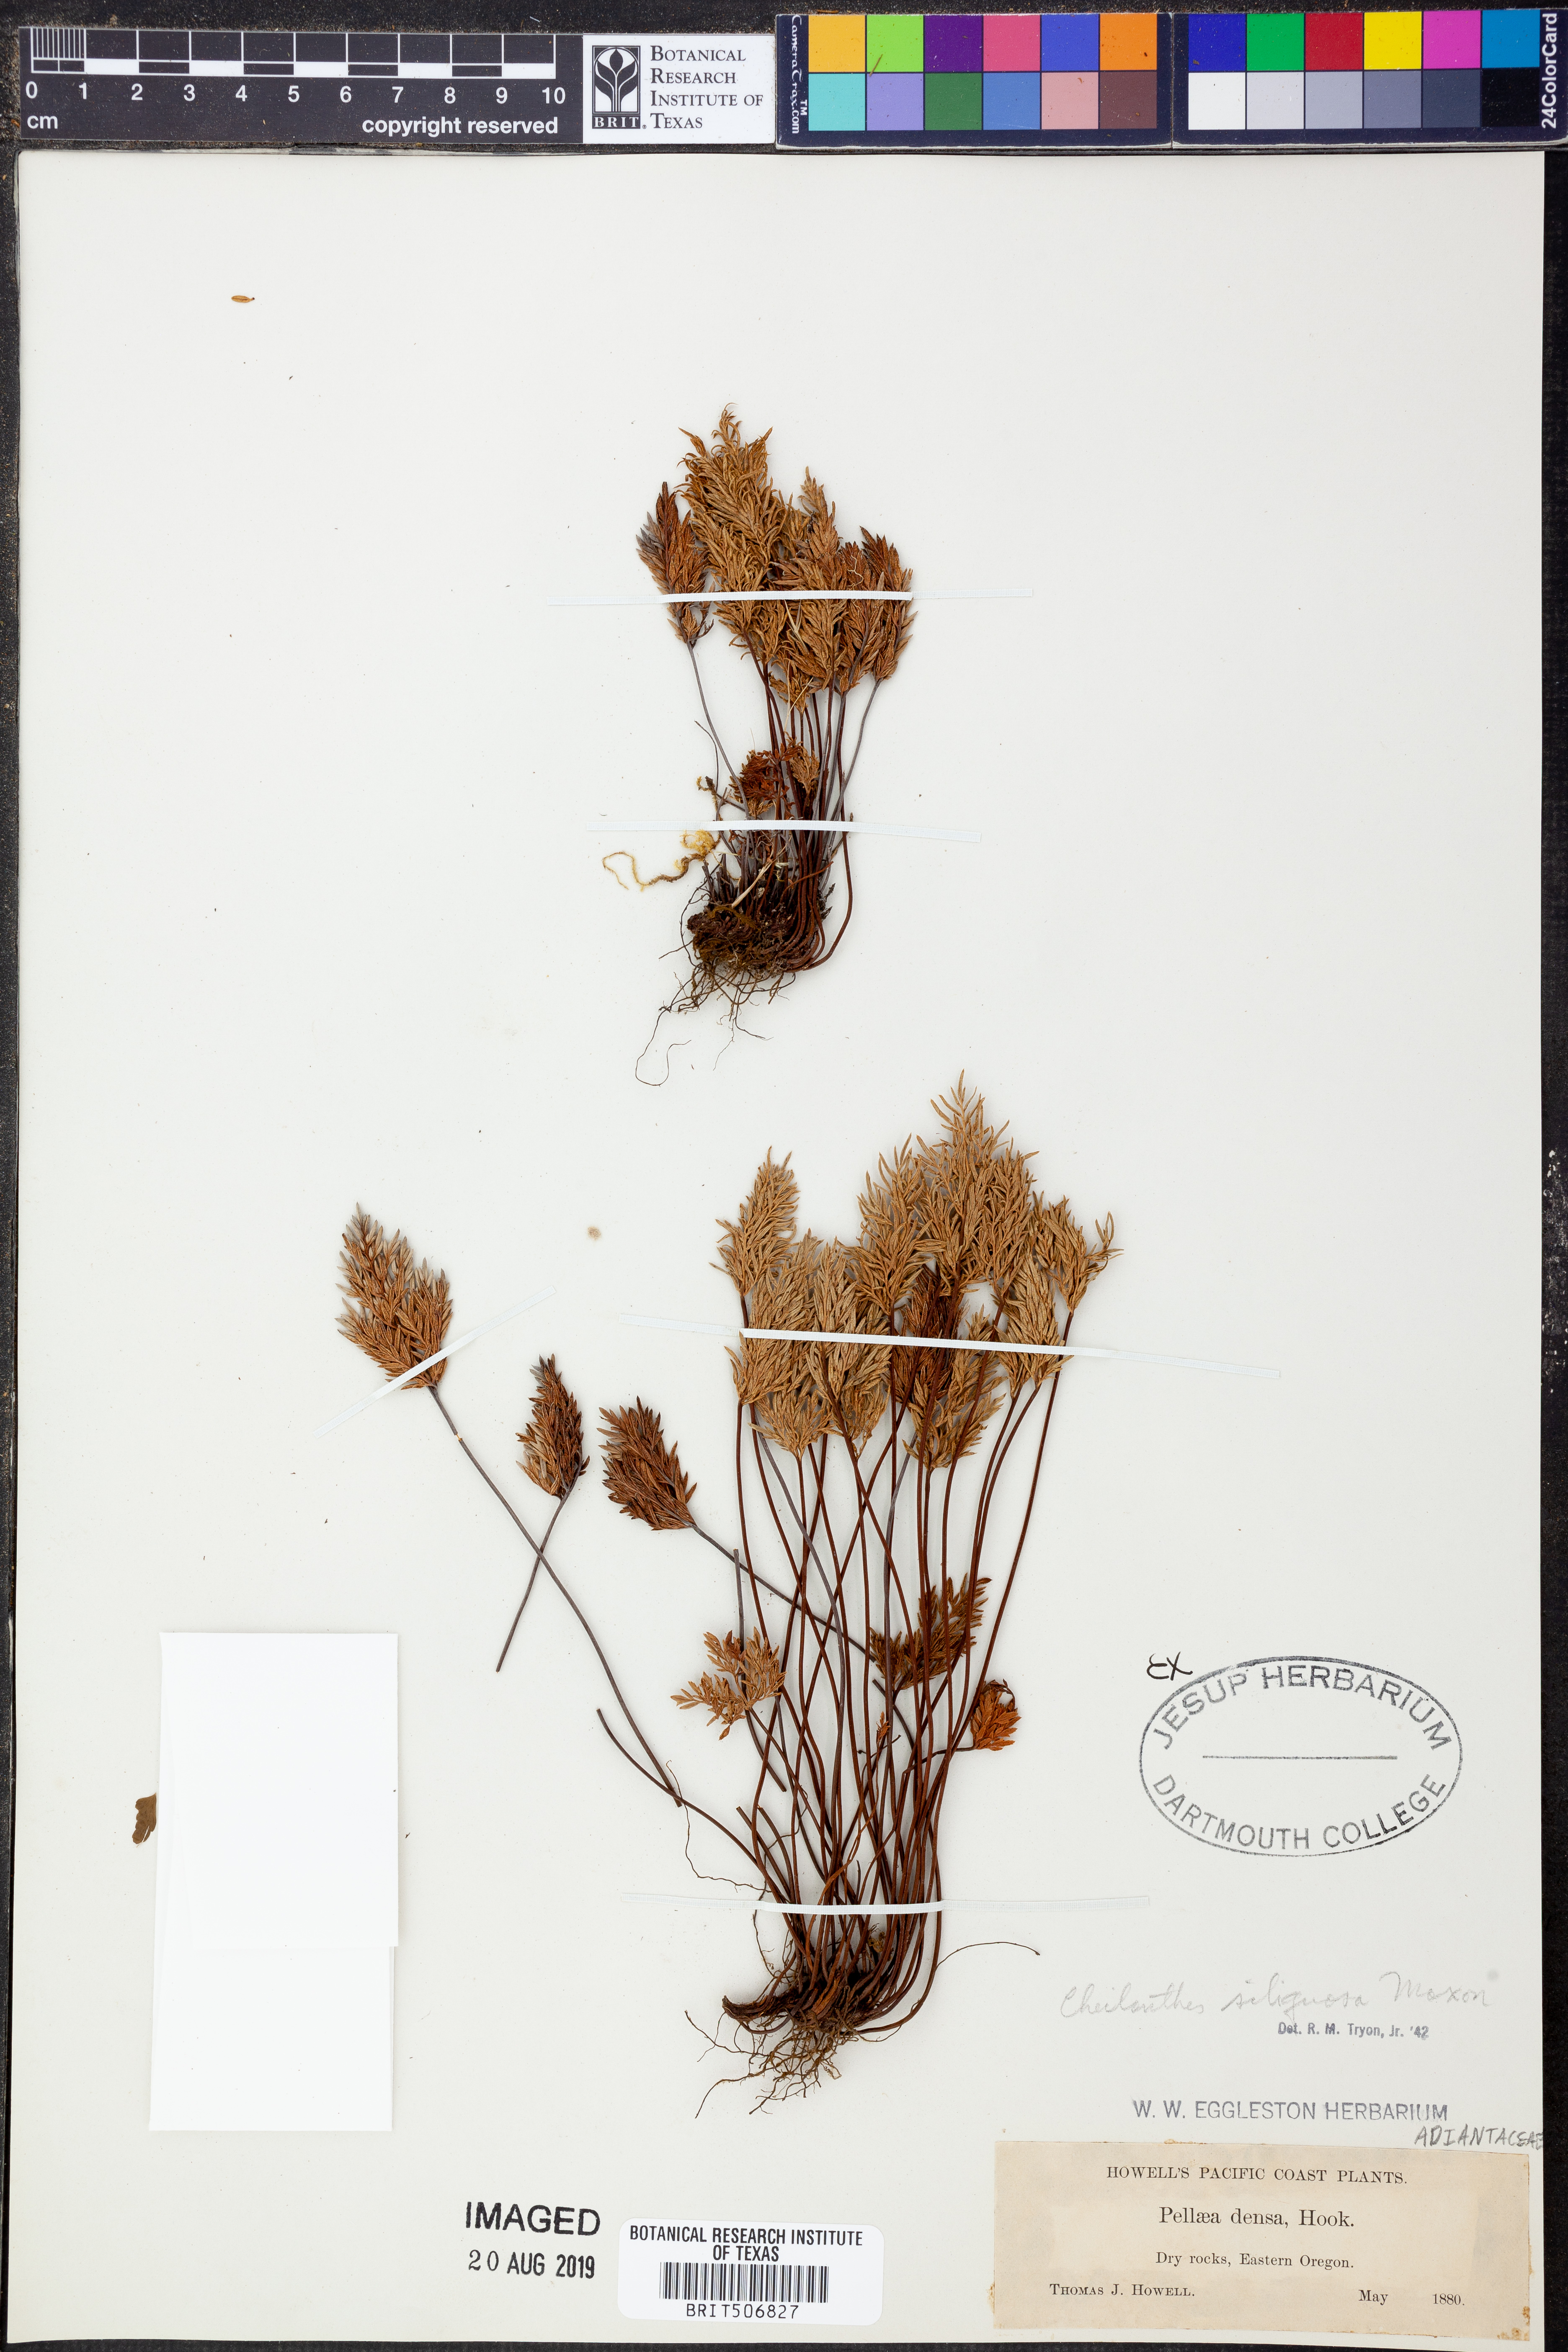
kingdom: Plantae
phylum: Tracheophyta
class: Polypodiopsida
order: Polypodiales
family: Pteridaceae
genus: Aspidotis
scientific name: Aspidotis densa
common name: Indian's dream
